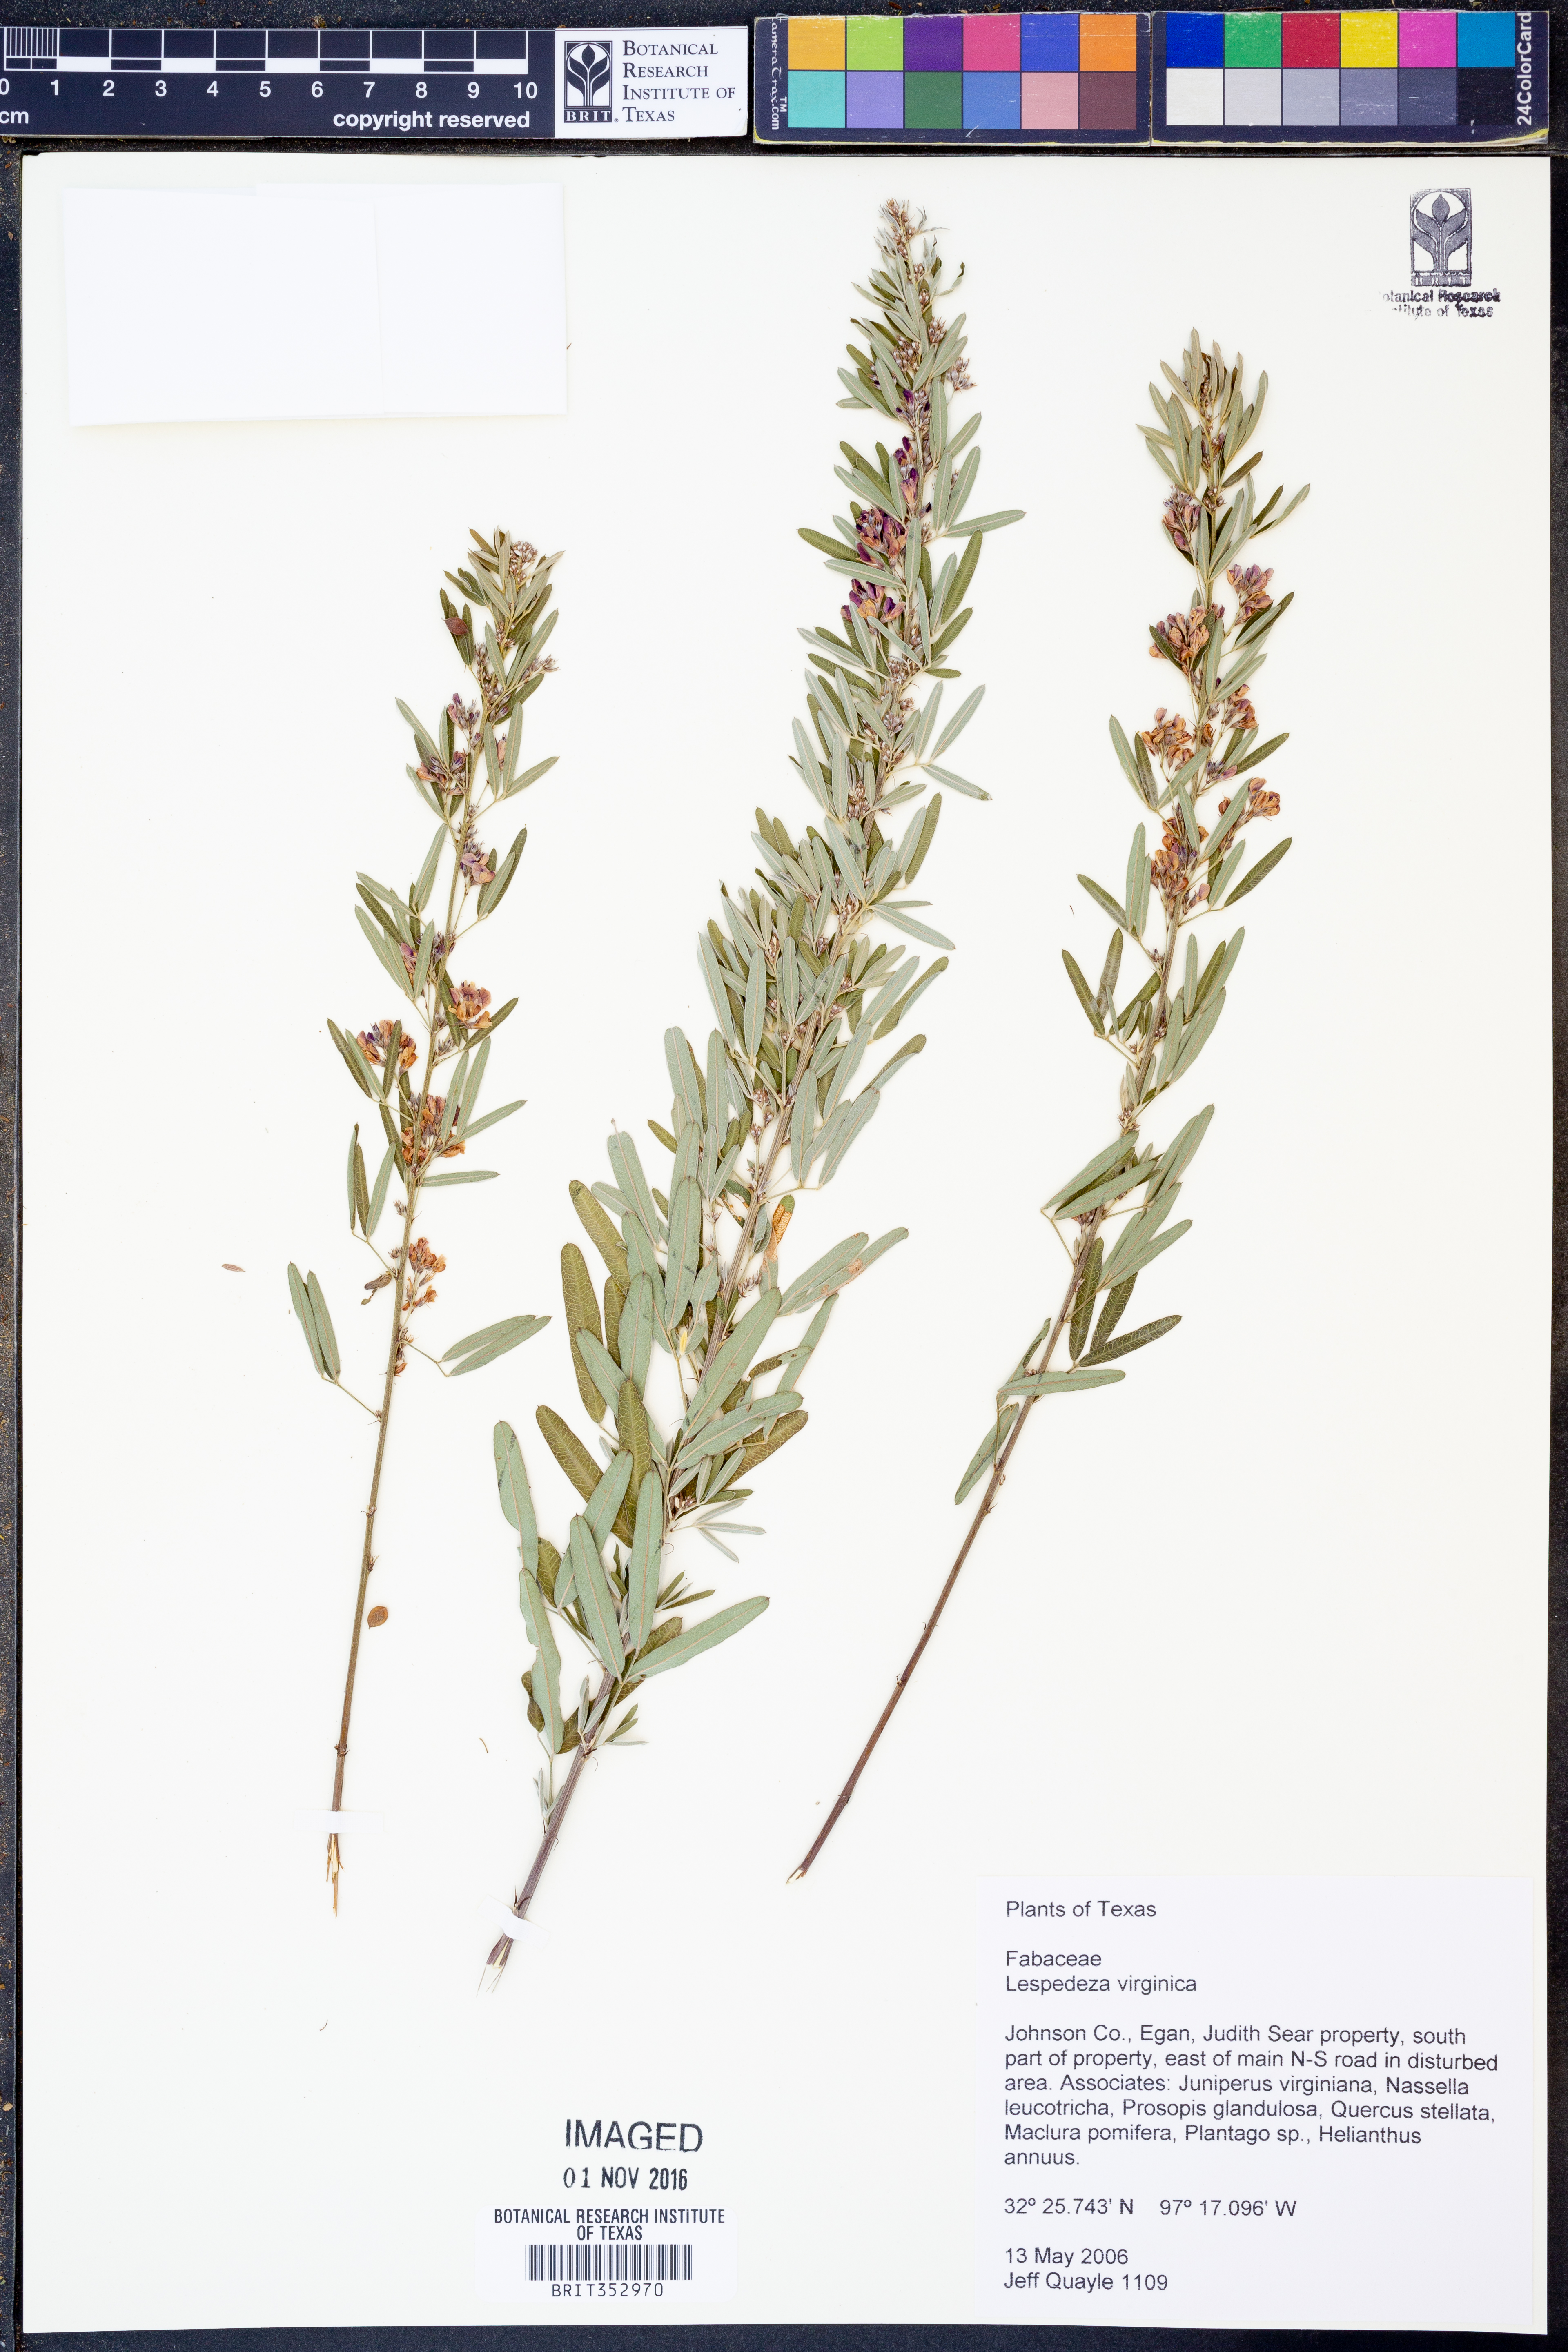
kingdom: Plantae
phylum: Tracheophyta
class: Magnoliopsida
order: Fabales
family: Fabaceae
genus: Lespedeza
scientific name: Lespedeza virginica
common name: Slender bush-clover
